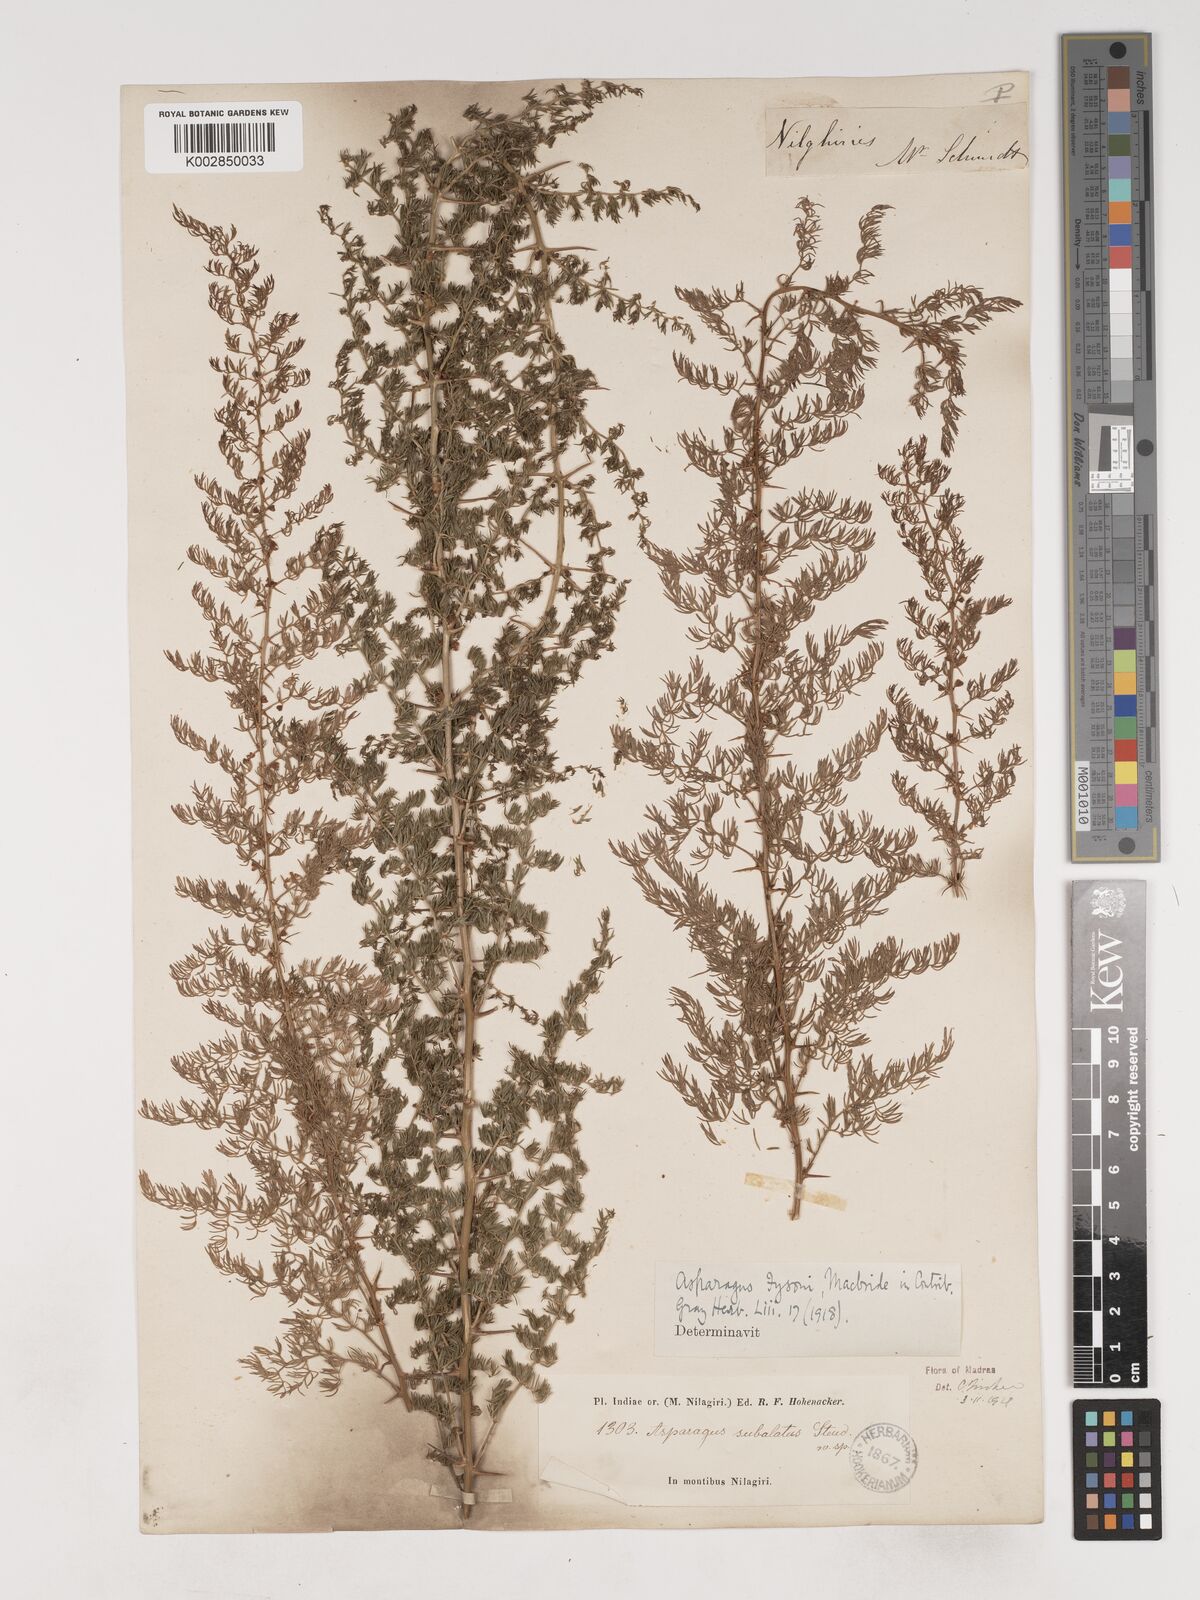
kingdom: Plantae
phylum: Tracheophyta
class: Liliopsida
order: Asparagales
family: Asparagaceae
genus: Asparagus
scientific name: Asparagus fysonii
